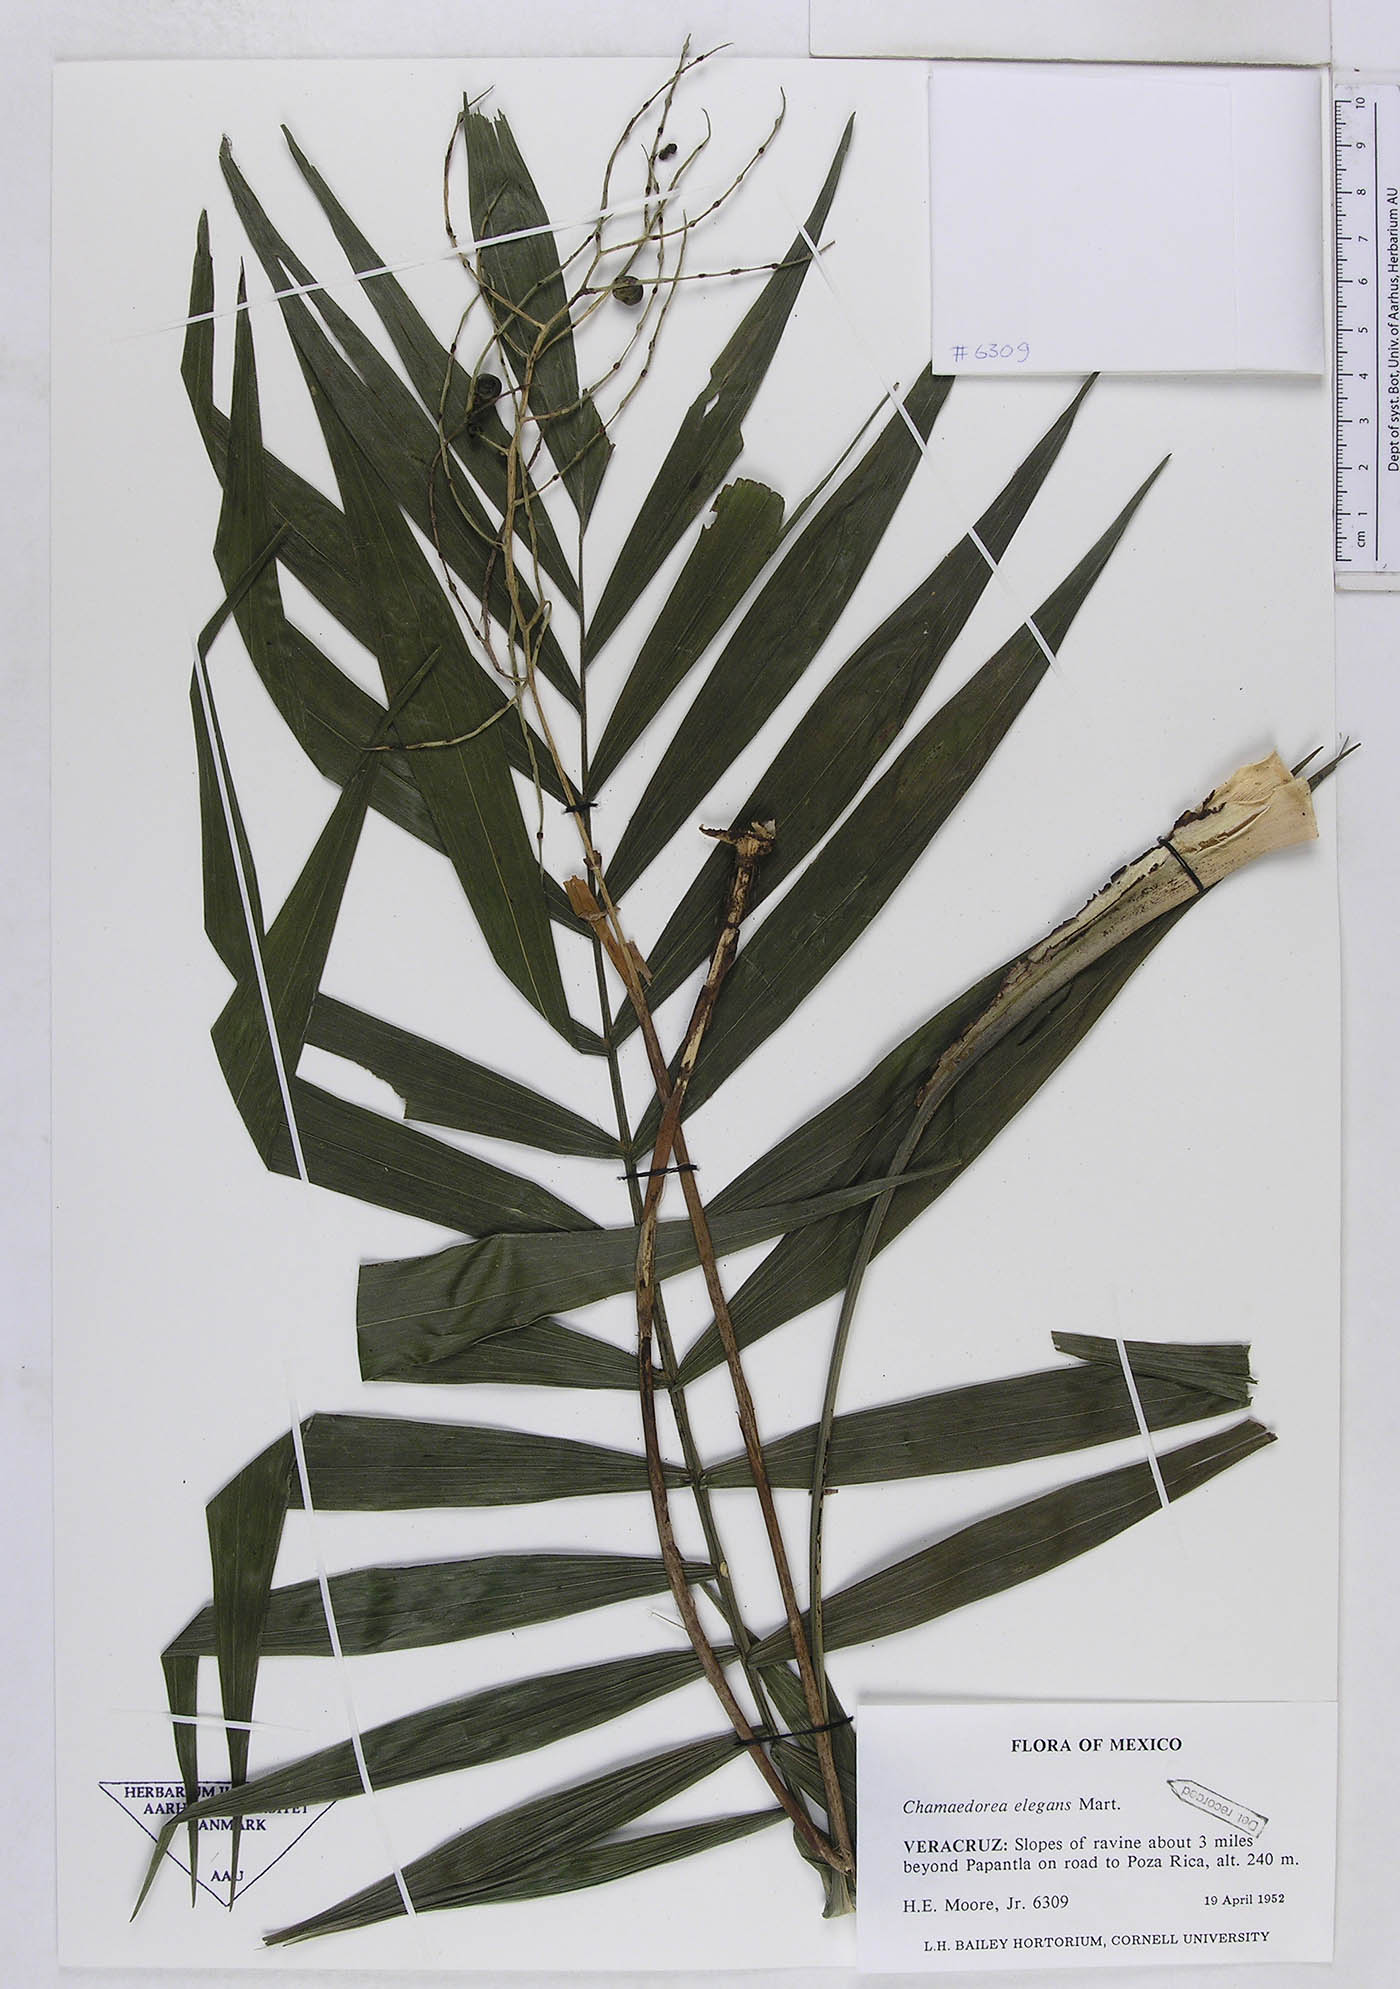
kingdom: Plantae
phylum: Tracheophyta
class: Liliopsida
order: Arecales
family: Arecaceae
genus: Chamaedorea
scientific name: Chamaedorea elegans
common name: Good-luck palm
